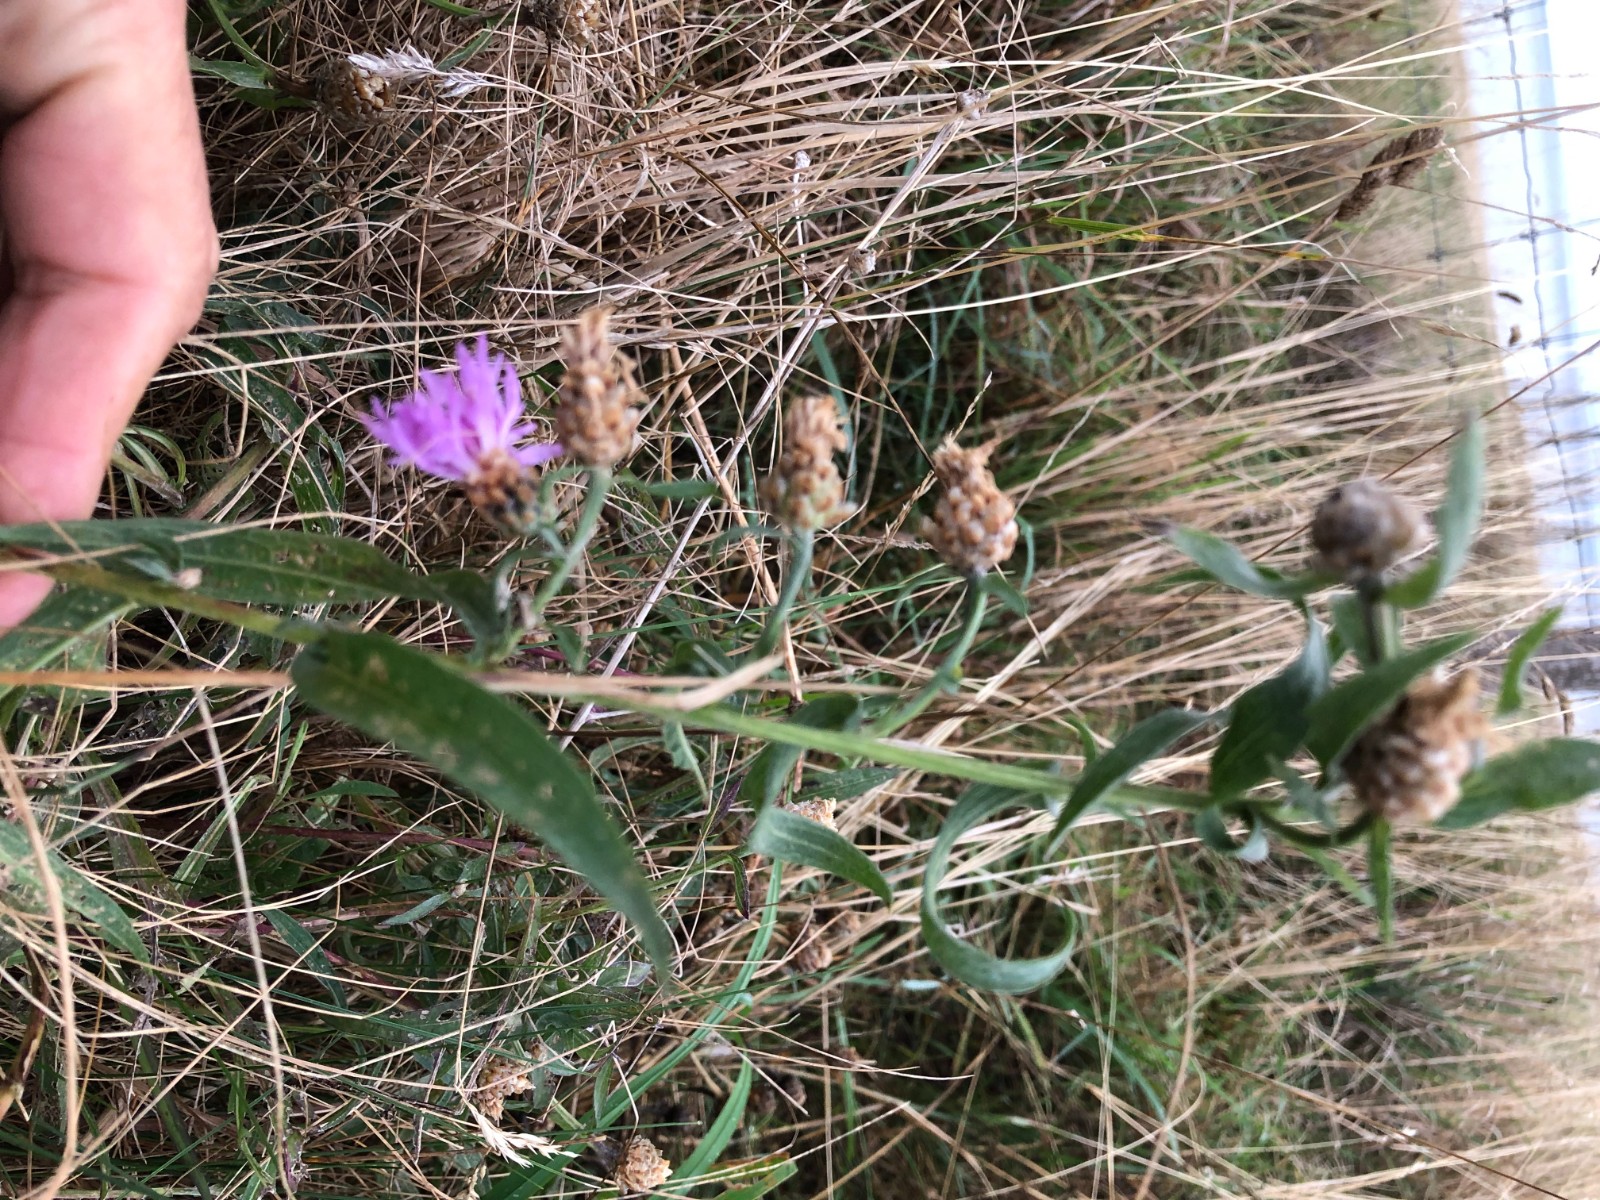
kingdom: Fungi
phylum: Basidiomycota
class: Pucciniomycetes
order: Pucciniales
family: Pucciniaceae
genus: Puccinia
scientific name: Puccinia hieracii
